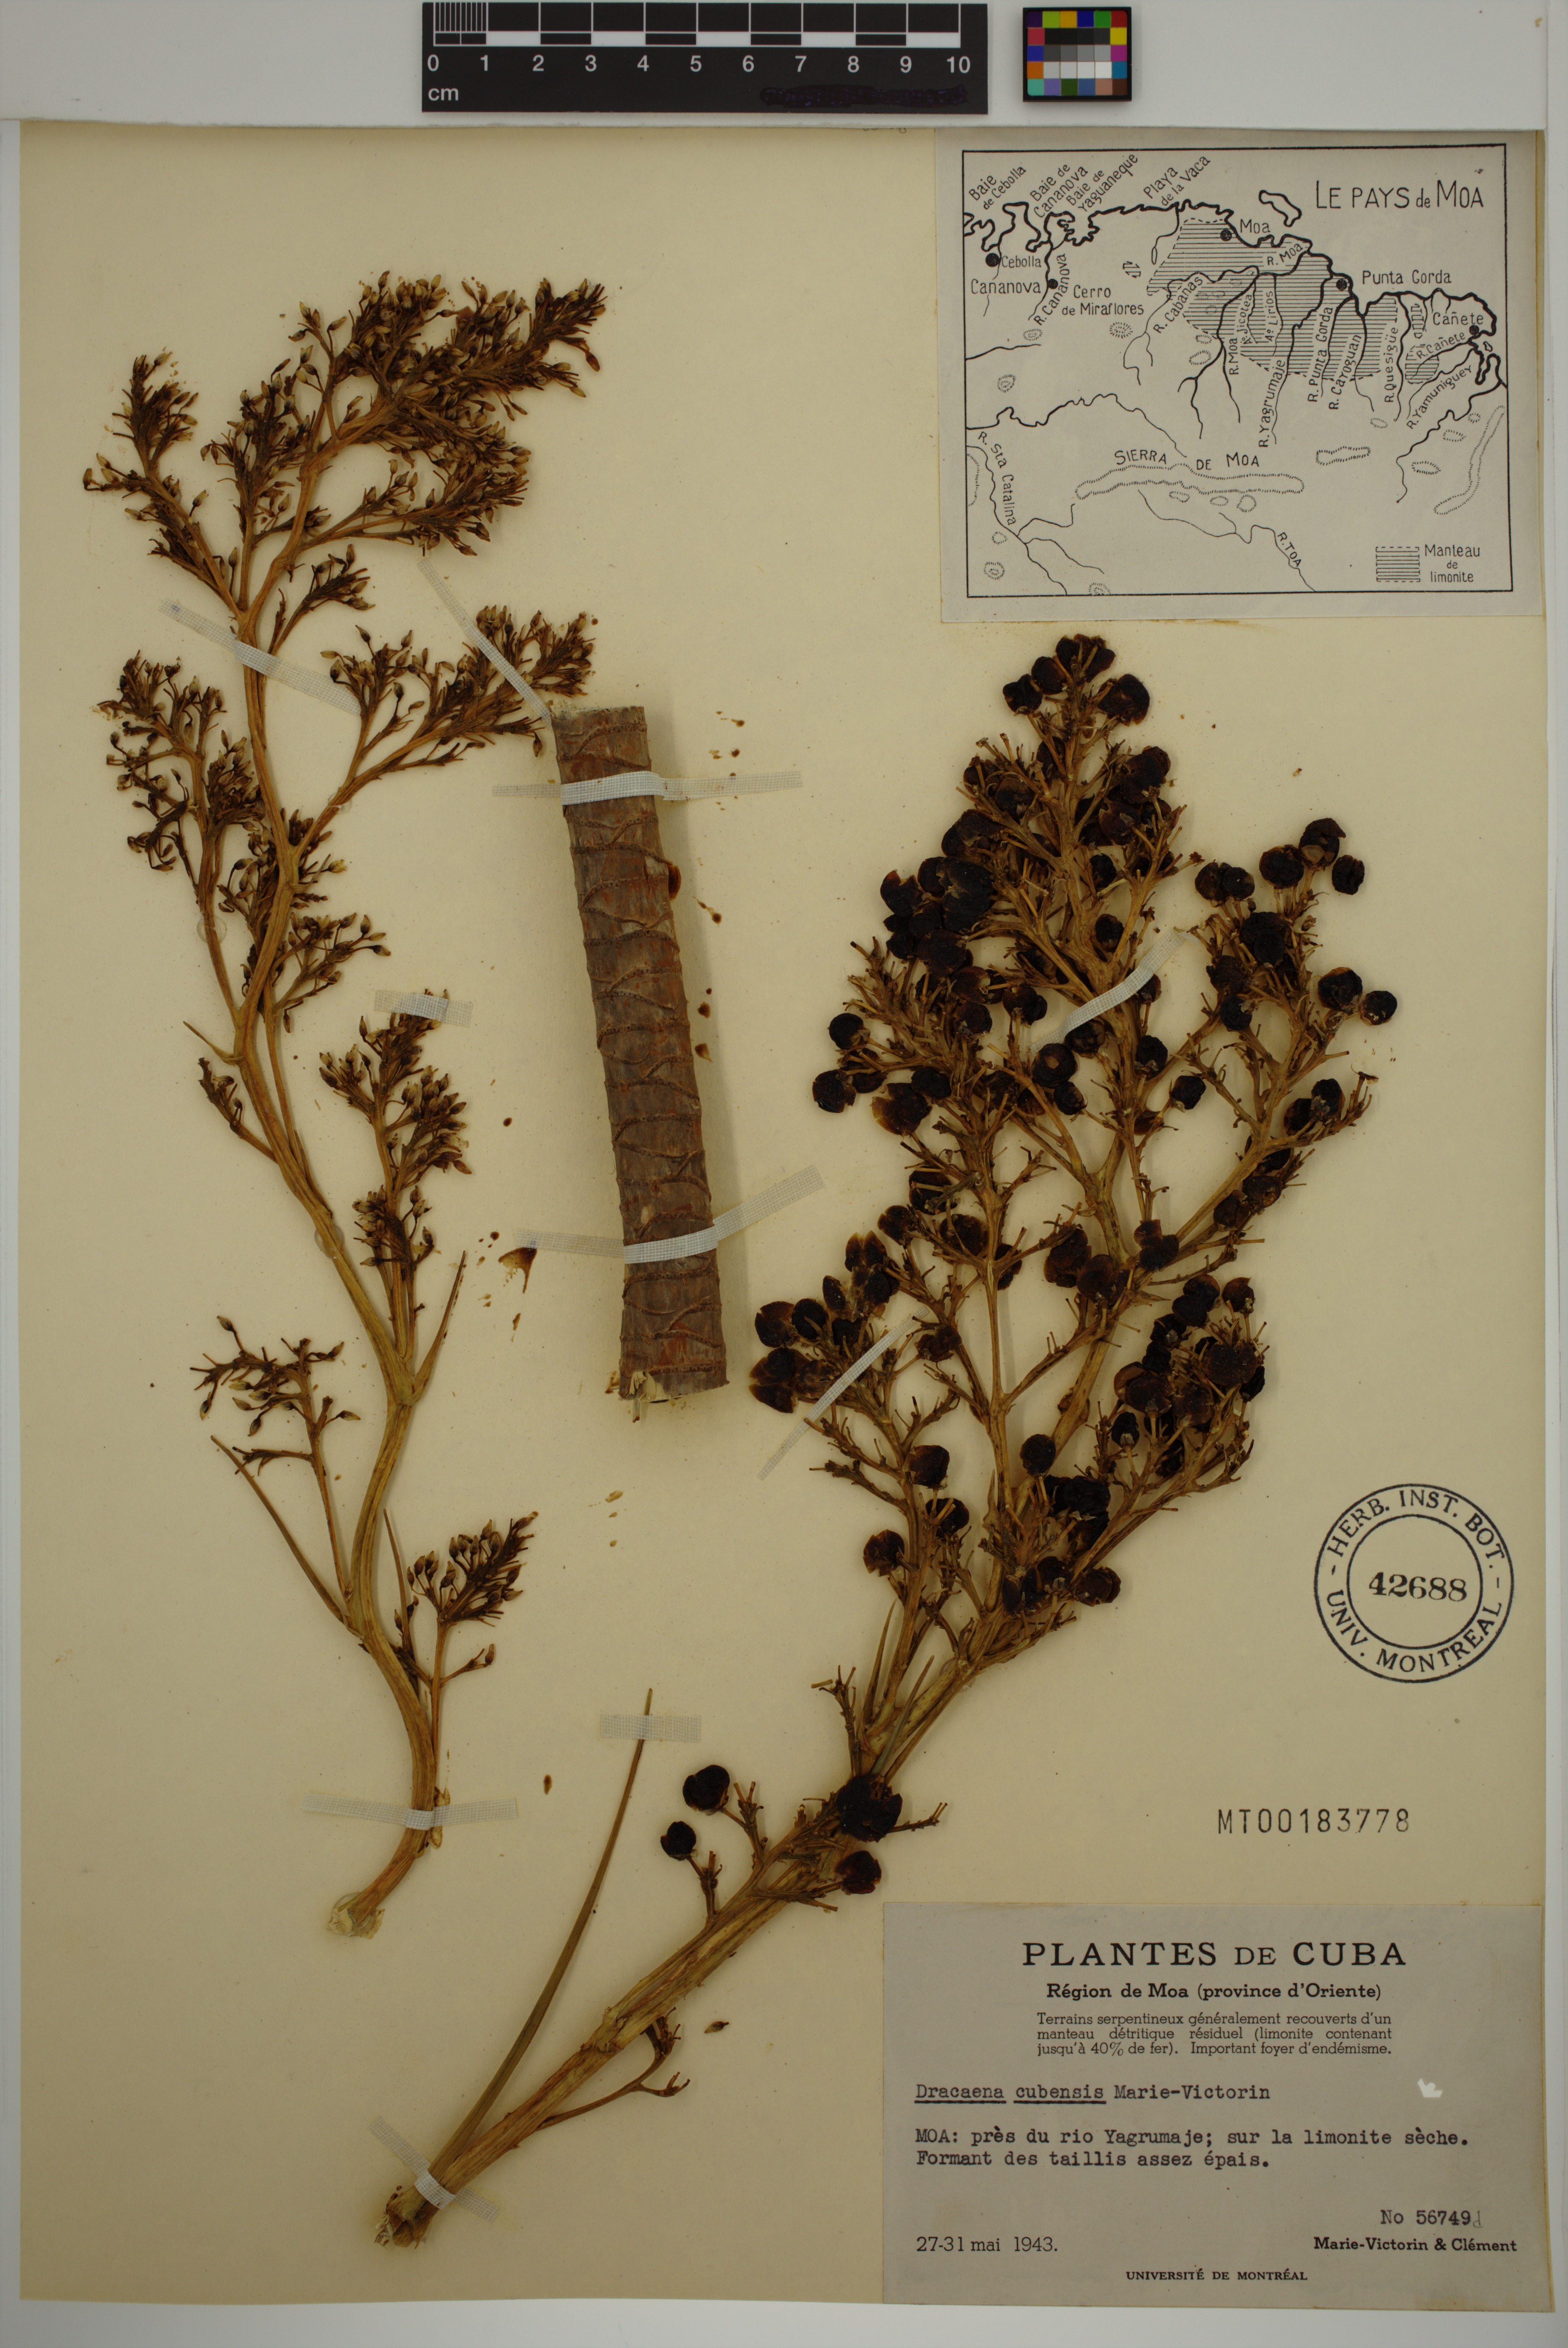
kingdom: Plantae
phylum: Tracheophyta
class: Liliopsida
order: Asparagales
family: Asparagaceae
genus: Dracaena
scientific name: Dracaena cubensis
